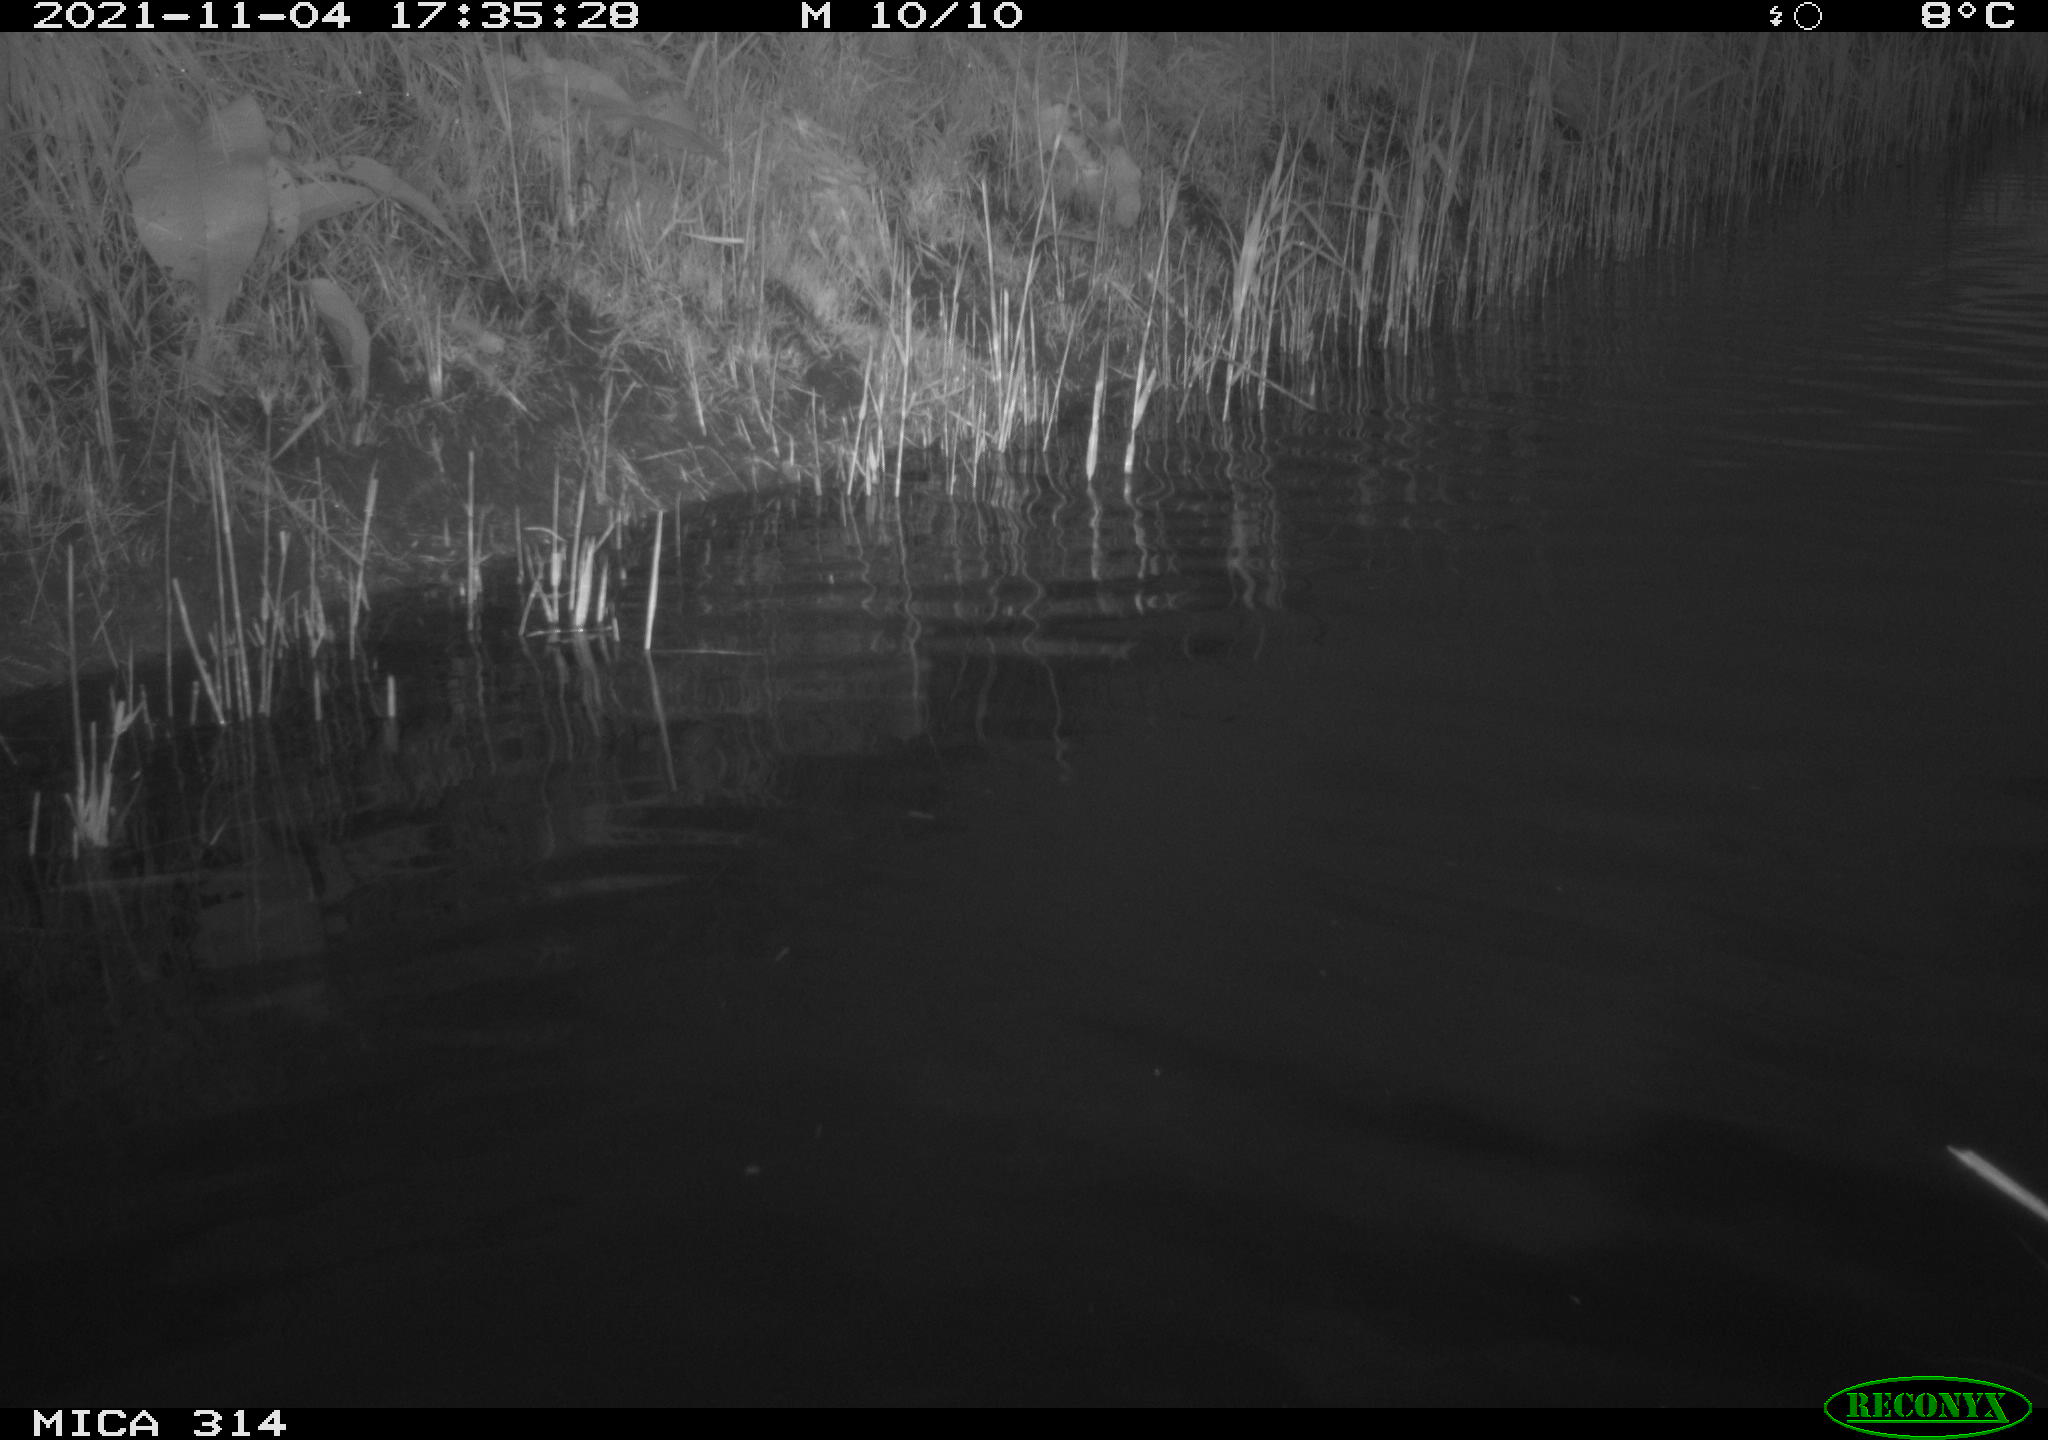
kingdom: Animalia
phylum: Chordata
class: Aves
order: Gruiformes
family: Rallidae
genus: Fulica
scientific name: Fulica atra
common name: Eurasian coot
